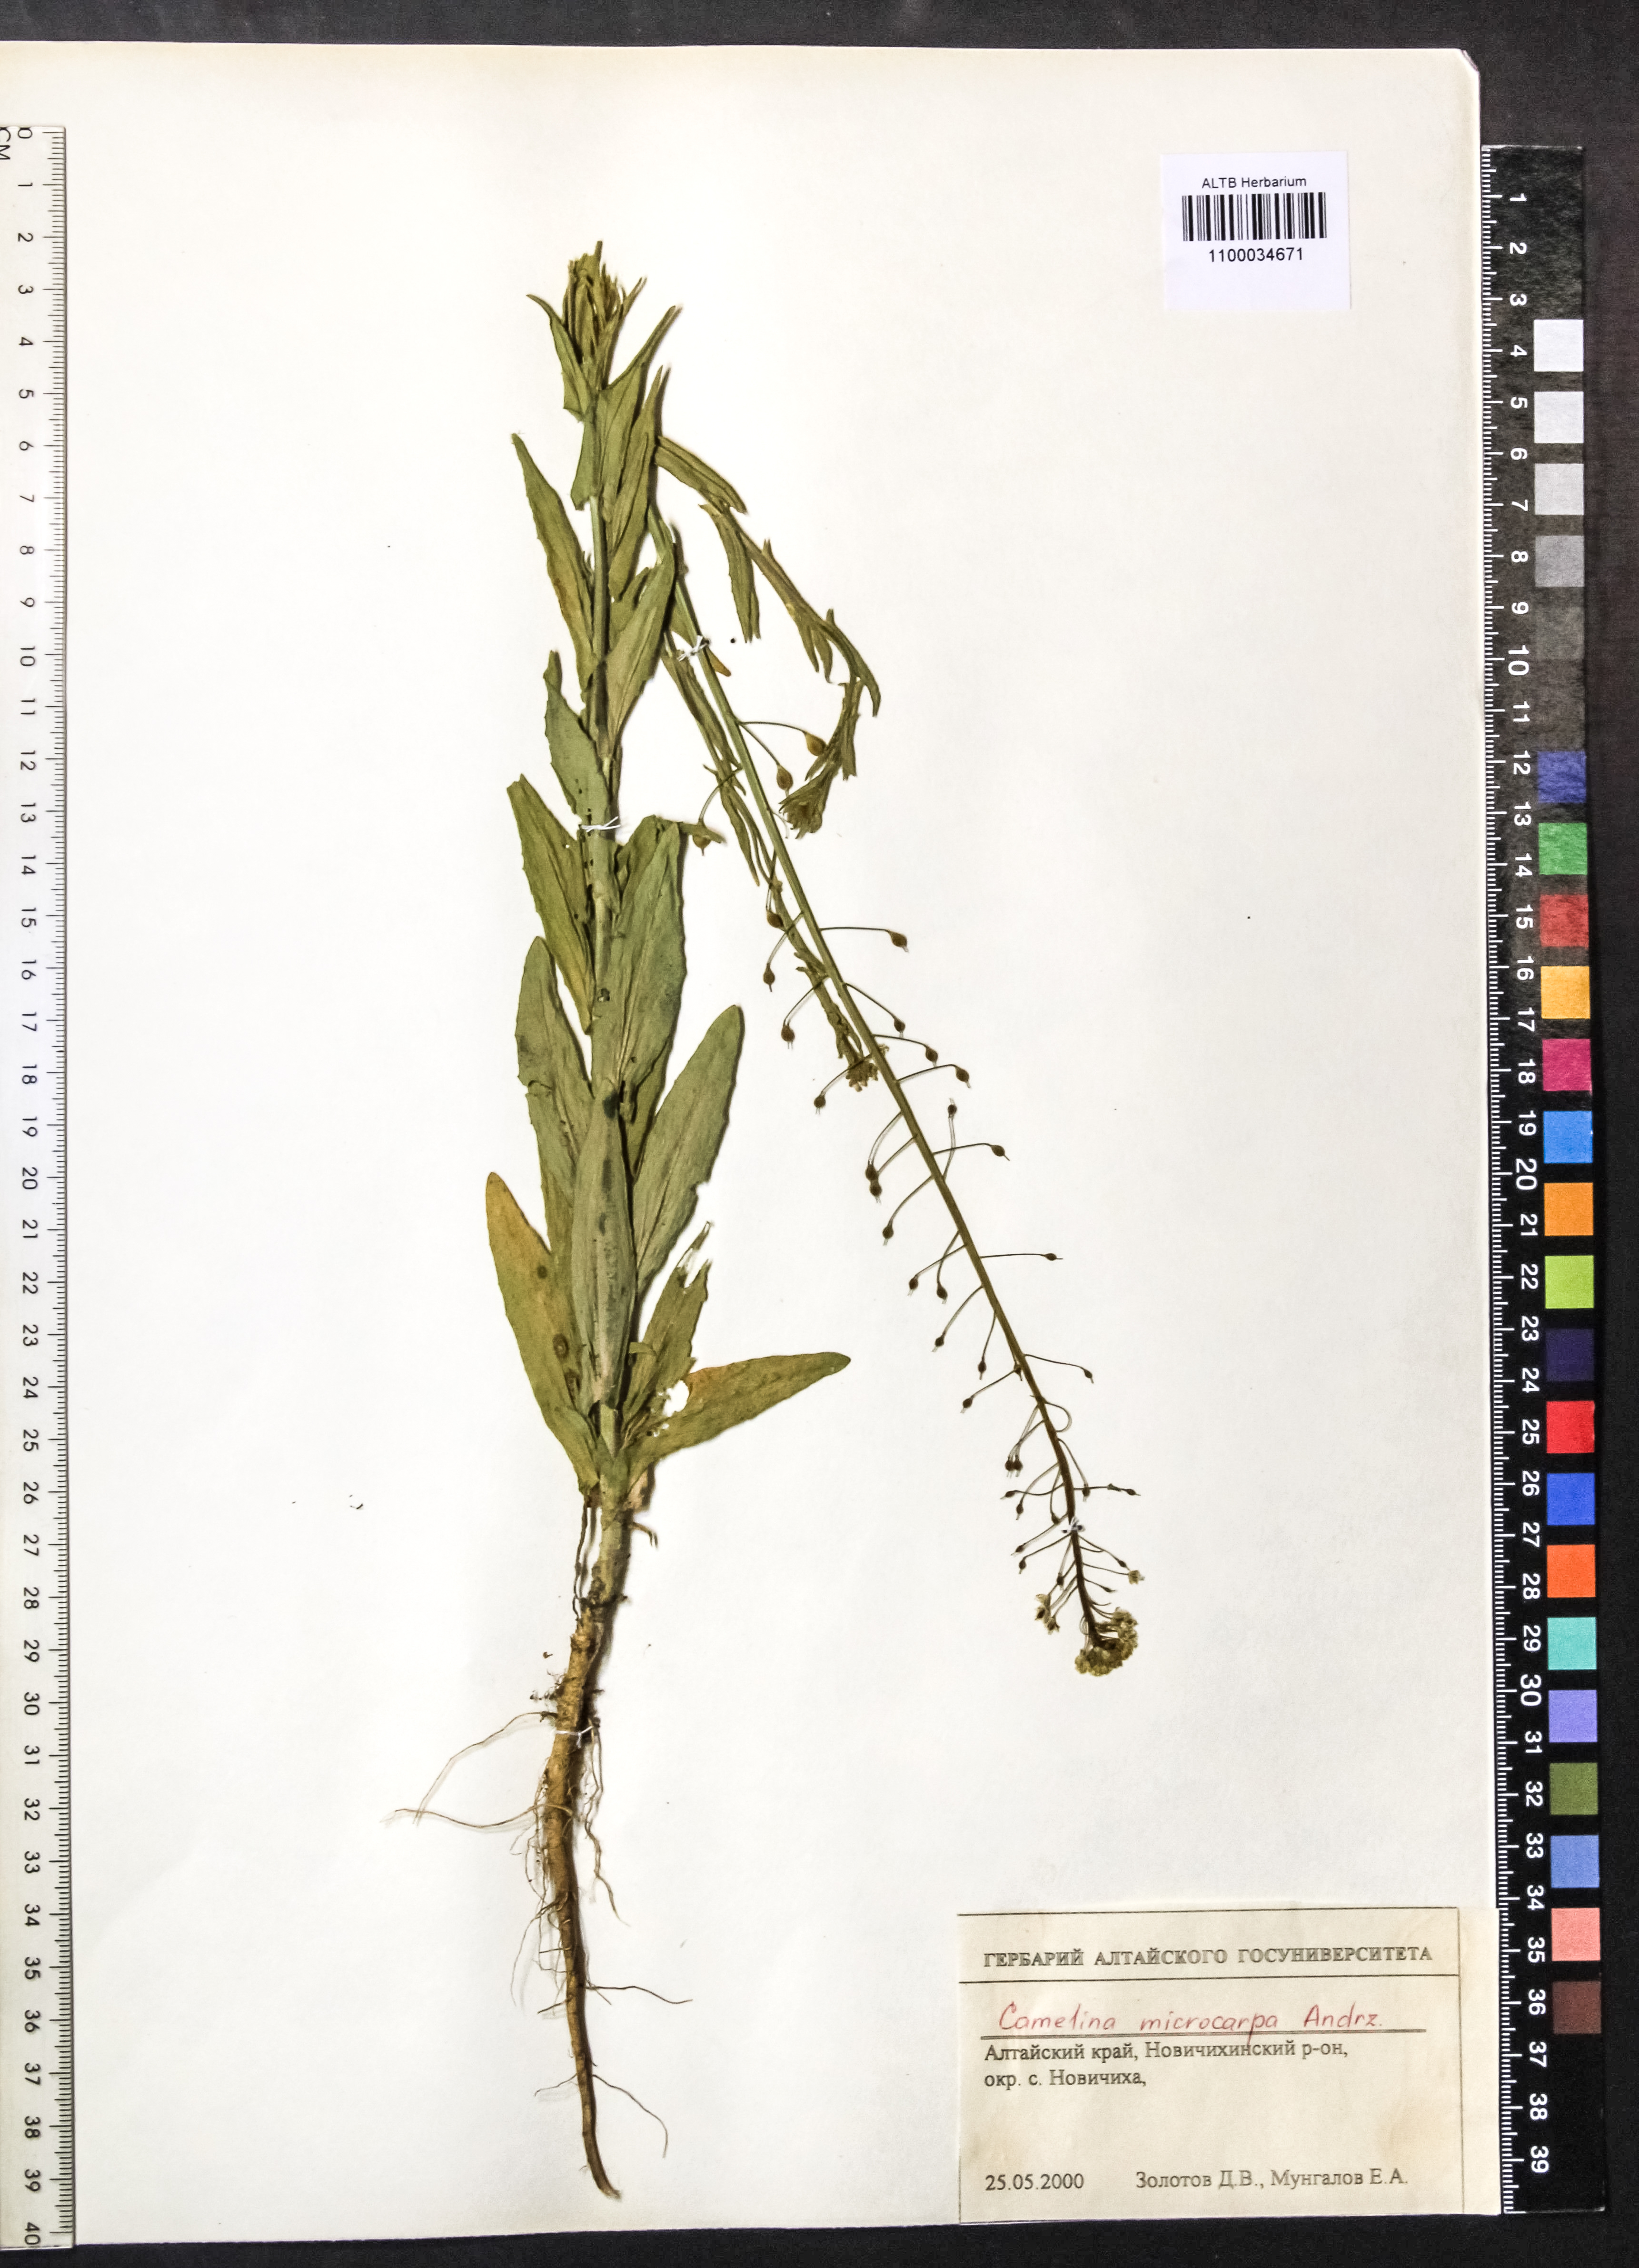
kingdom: Plantae
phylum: Tracheophyta
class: Magnoliopsida
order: Brassicales
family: Brassicaceae
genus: Camelina
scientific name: Camelina microcarpa
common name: Lesser gold-of-pleasure
